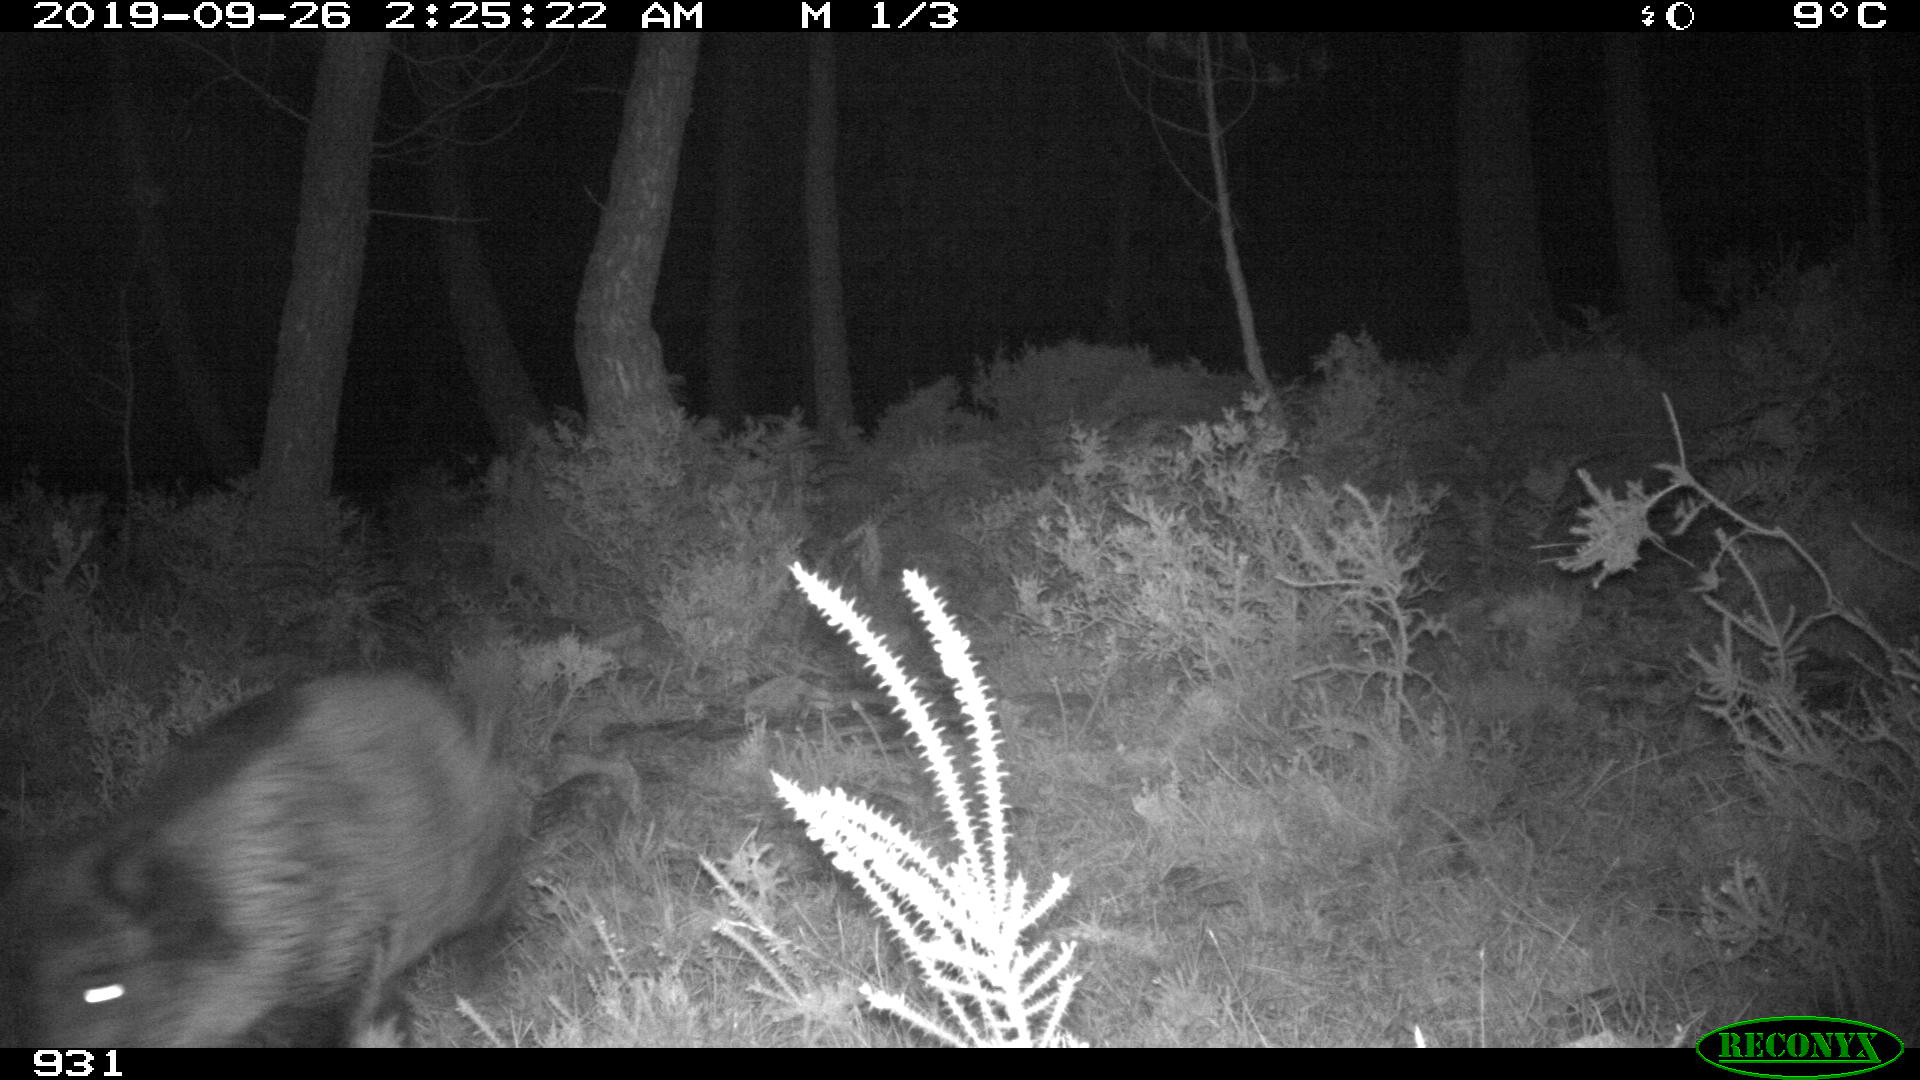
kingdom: Animalia
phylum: Chordata
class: Mammalia
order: Artiodactyla
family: Suidae
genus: Sus
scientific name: Sus scrofa
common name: Wild boar
